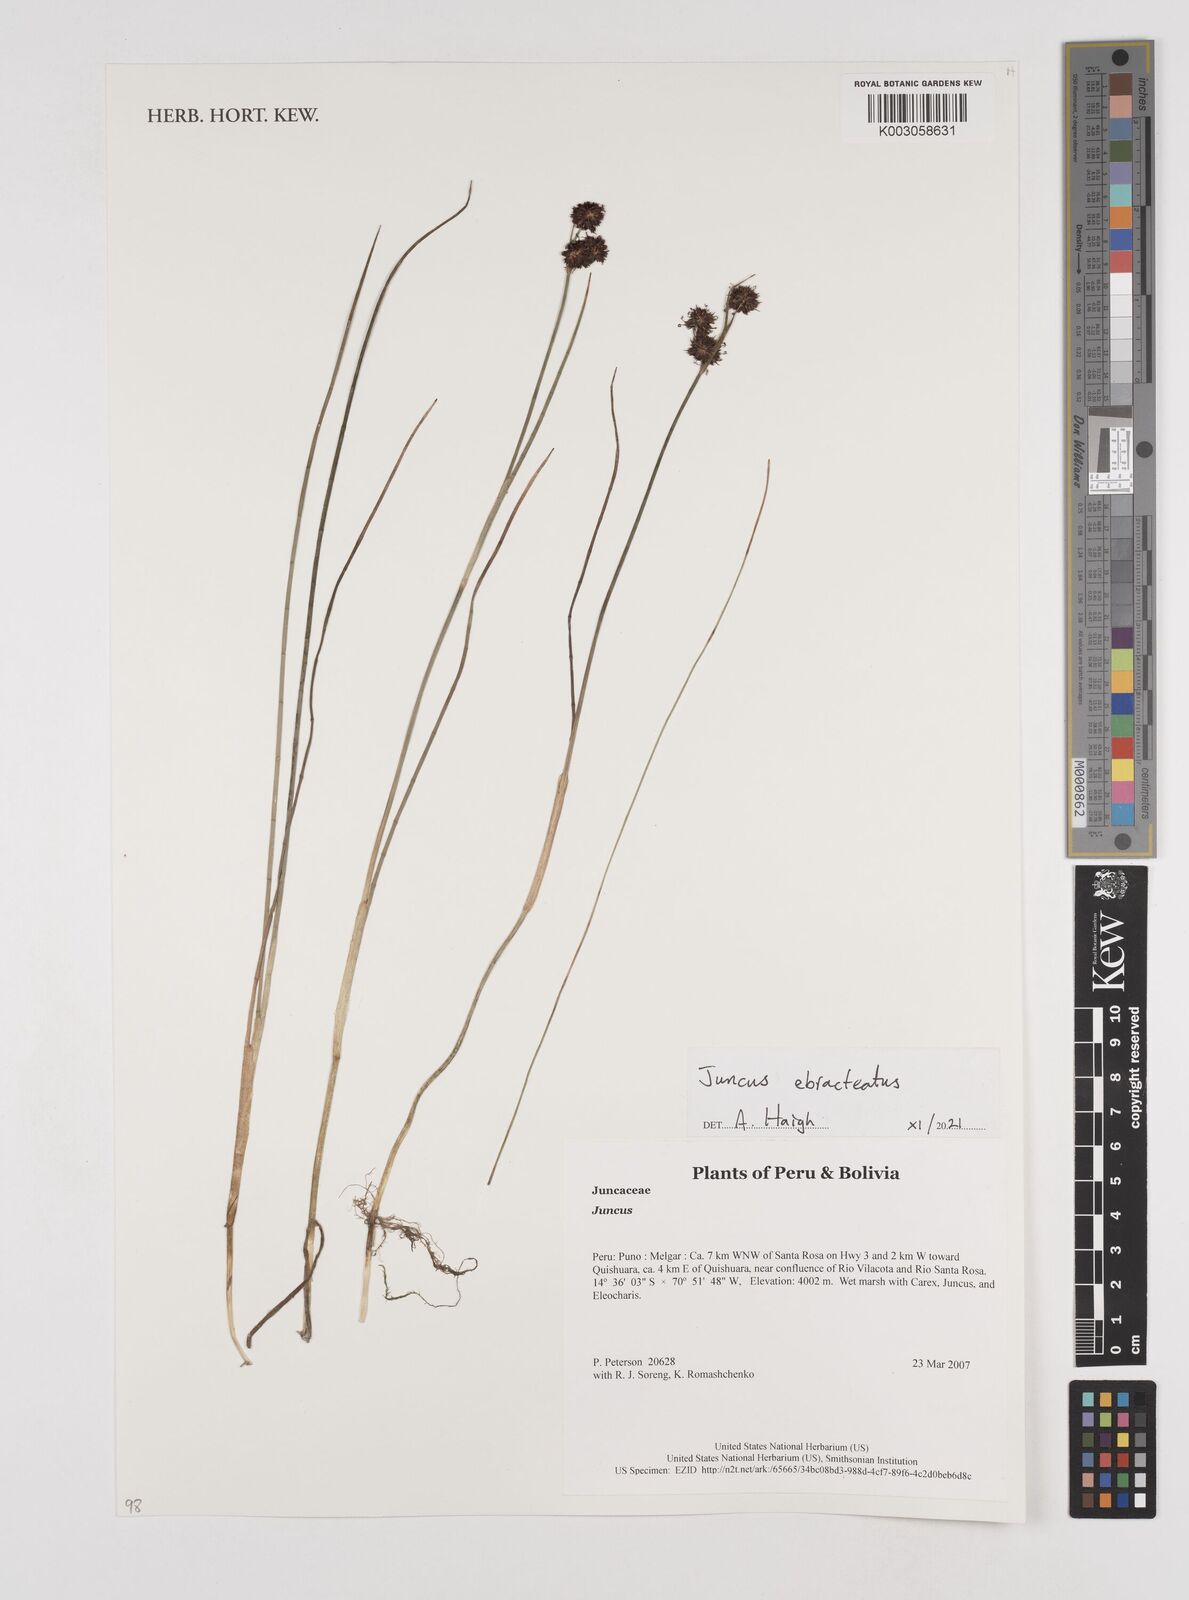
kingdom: Plantae
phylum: Tracheophyta
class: Liliopsida
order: Poales
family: Juncaceae
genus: Juncus
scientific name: Juncus ebracteatus
